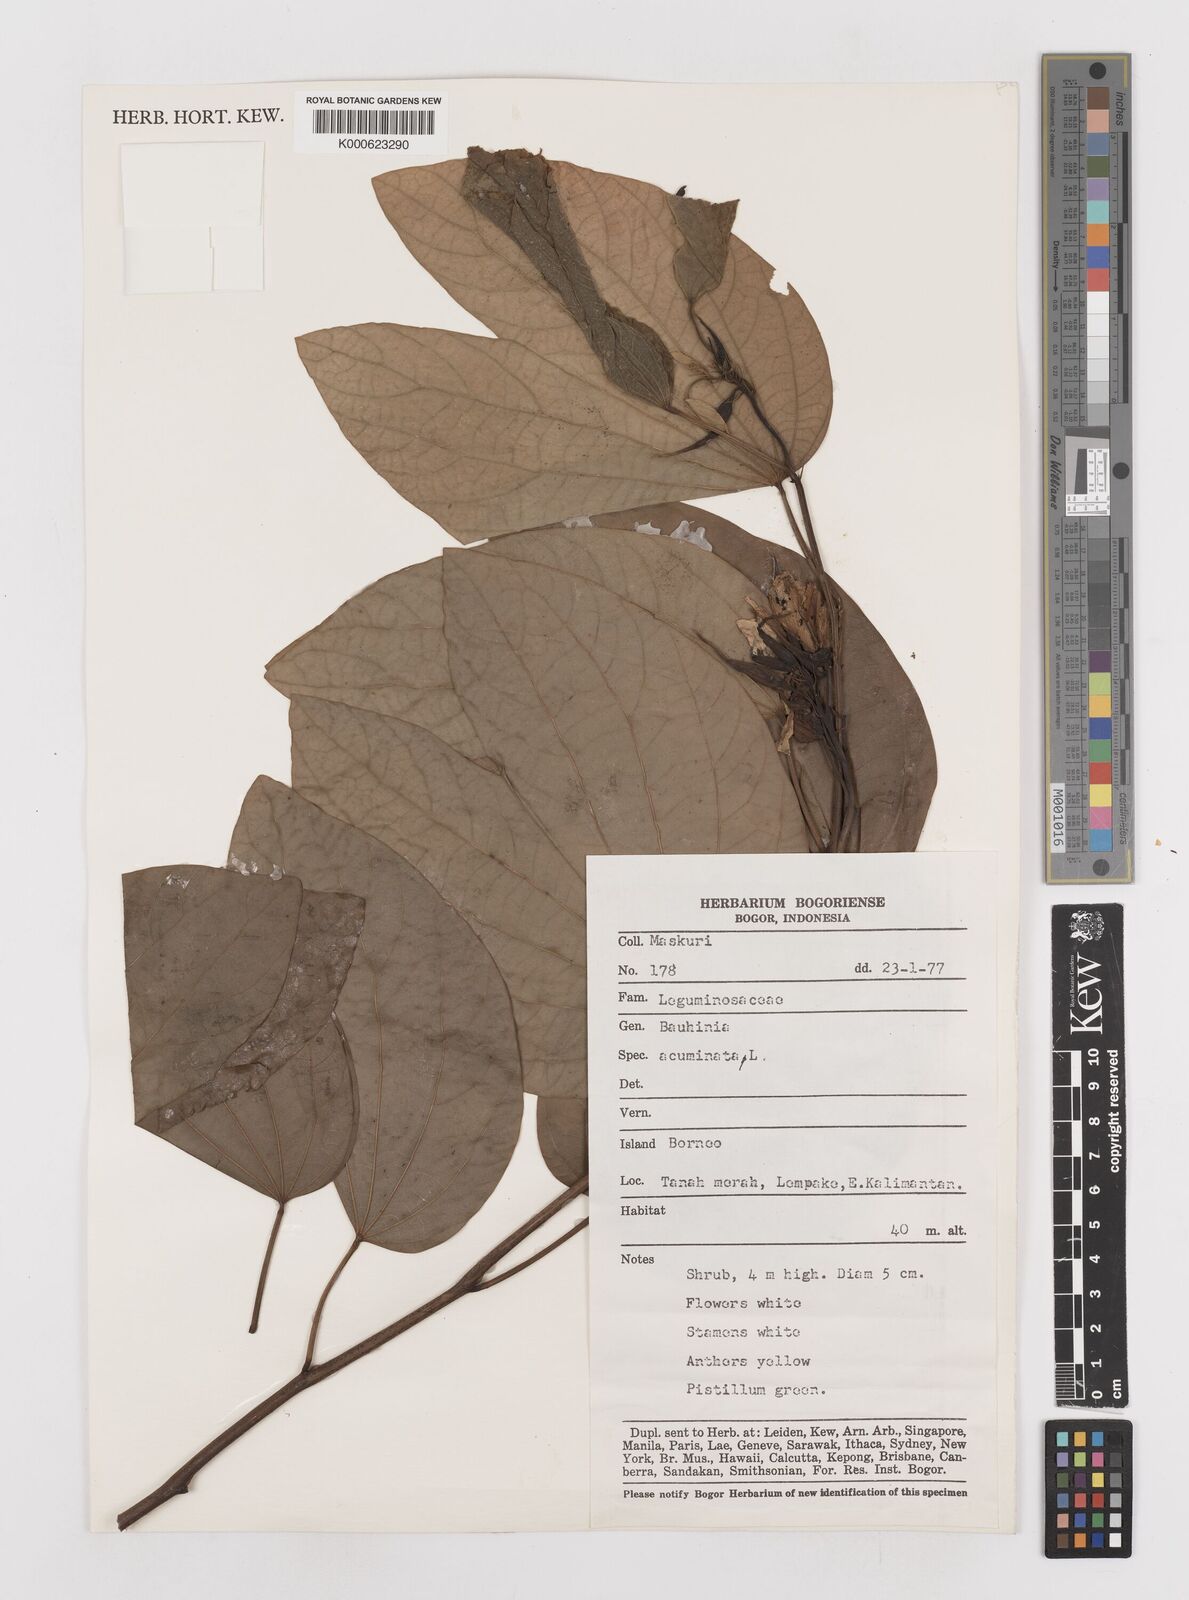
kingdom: Plantae
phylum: Tracheophyta
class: Magnoliopsida
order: Fabales
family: Fabaceae
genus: Bauhinia
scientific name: Bauhinia acuminata
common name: Dwarf white bauhinia
